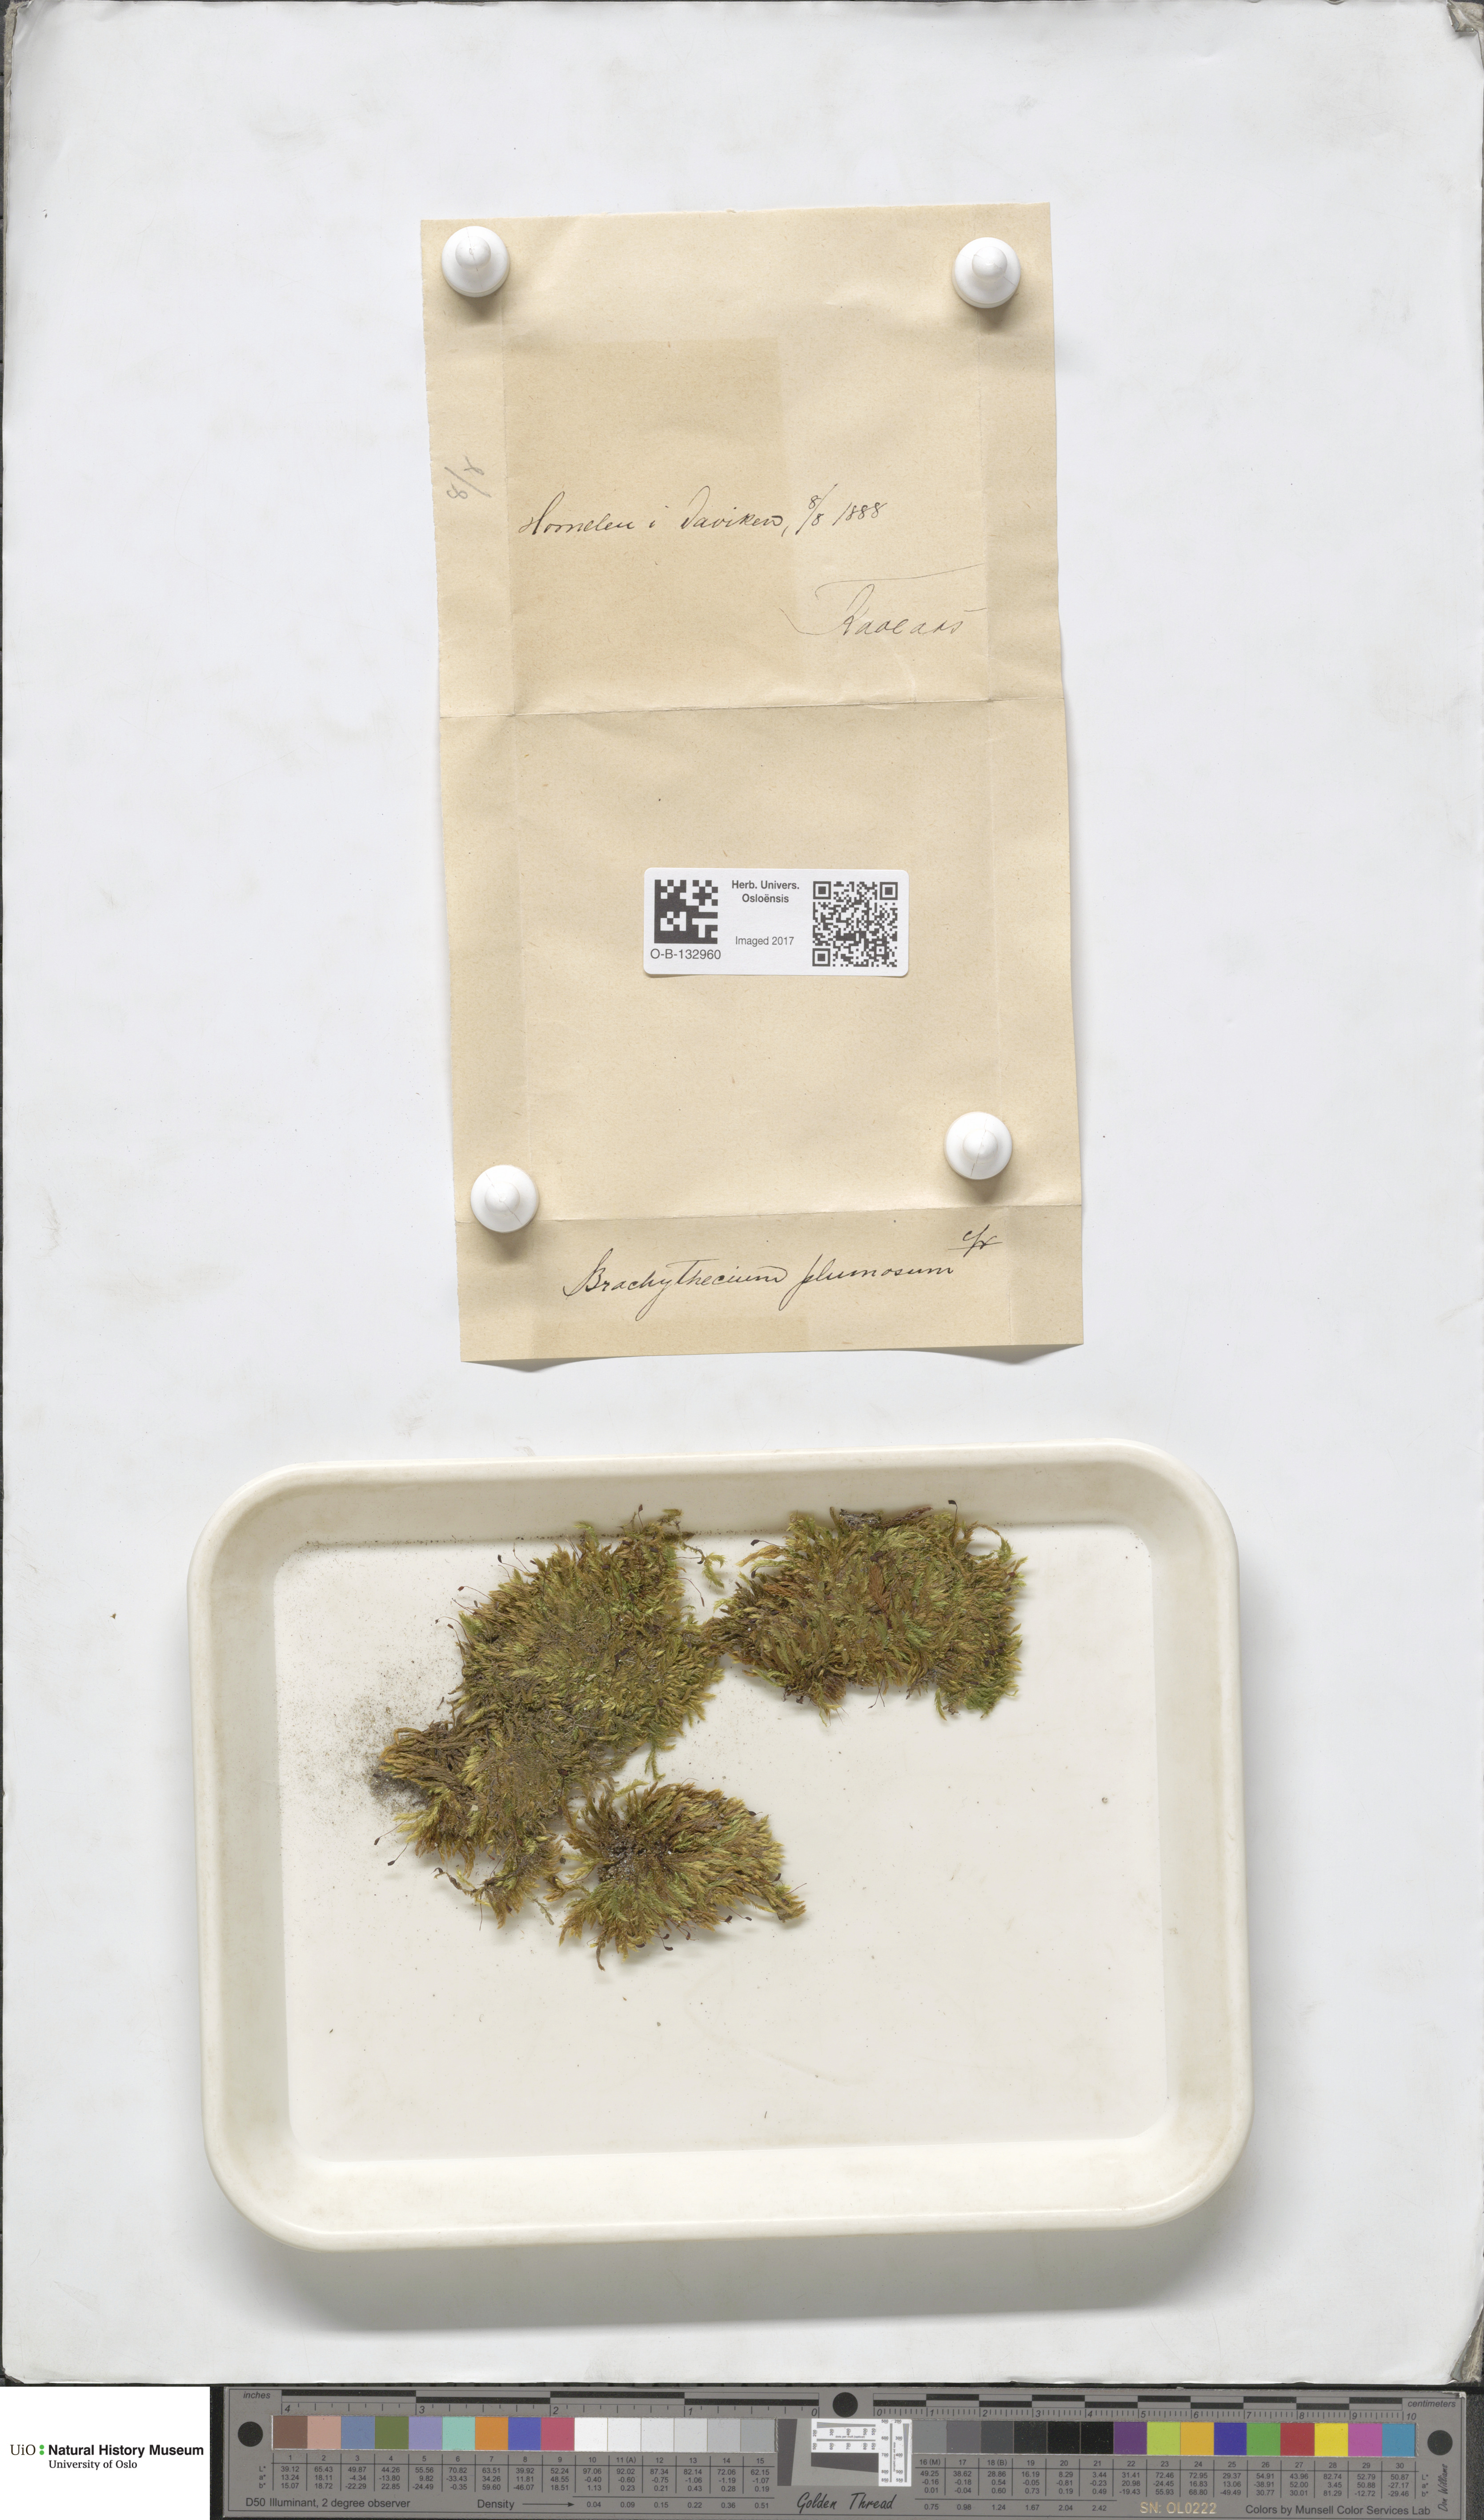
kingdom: Plantae
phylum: Bryophyta
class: Bryopsida
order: Hypnales
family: Brachytheciaceae
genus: Sciuro-hypnum
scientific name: Sciuro-hypnum plumosum
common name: Rusty feather-moss
